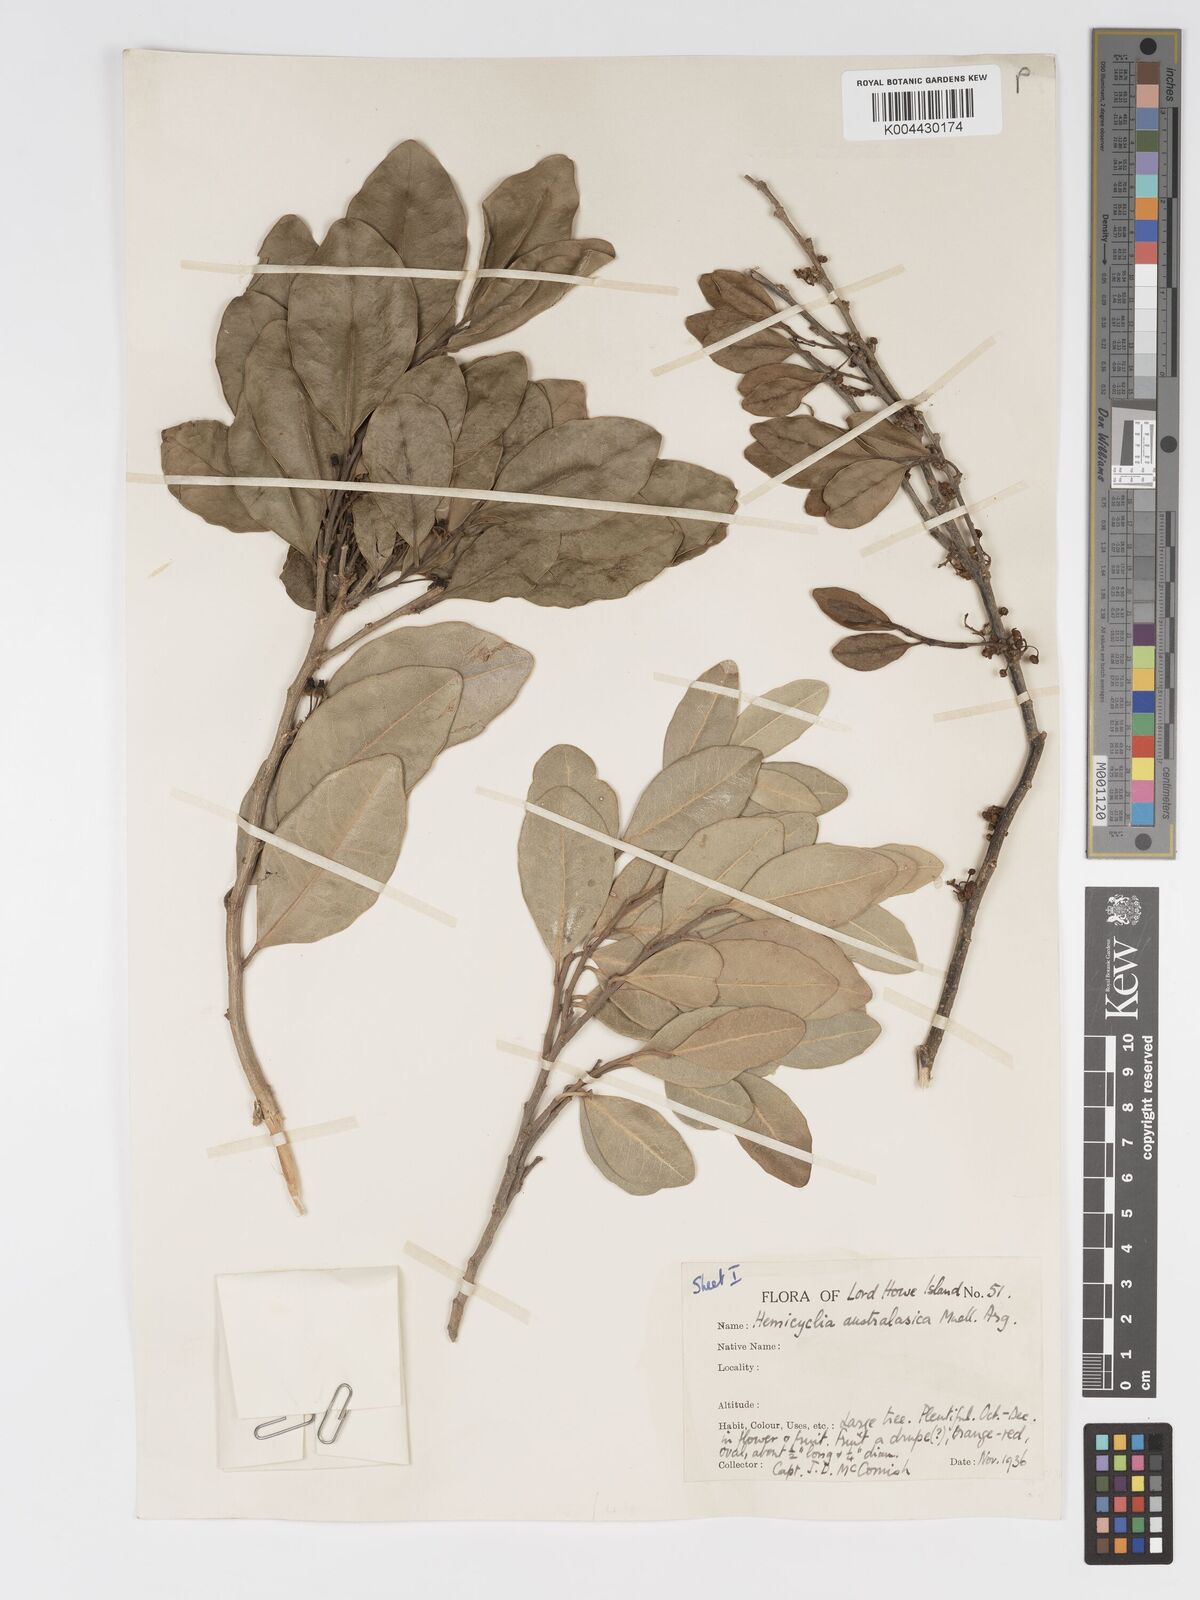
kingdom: Plantae
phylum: Tracheophyta
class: Magnoliopsida
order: Malpighiales
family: Putranjivaceae
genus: Drypetes
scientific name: Drypetes deplanchei
